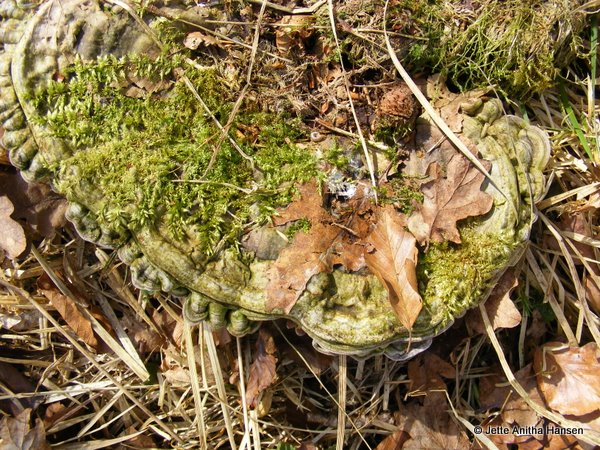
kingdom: Fungi
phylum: Basidiomycota
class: Agaricomycetes
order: Polyporales
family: Polyporaceae
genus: Ganoderma
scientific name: Ganoderma applanatum
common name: flad lakporesvamp
